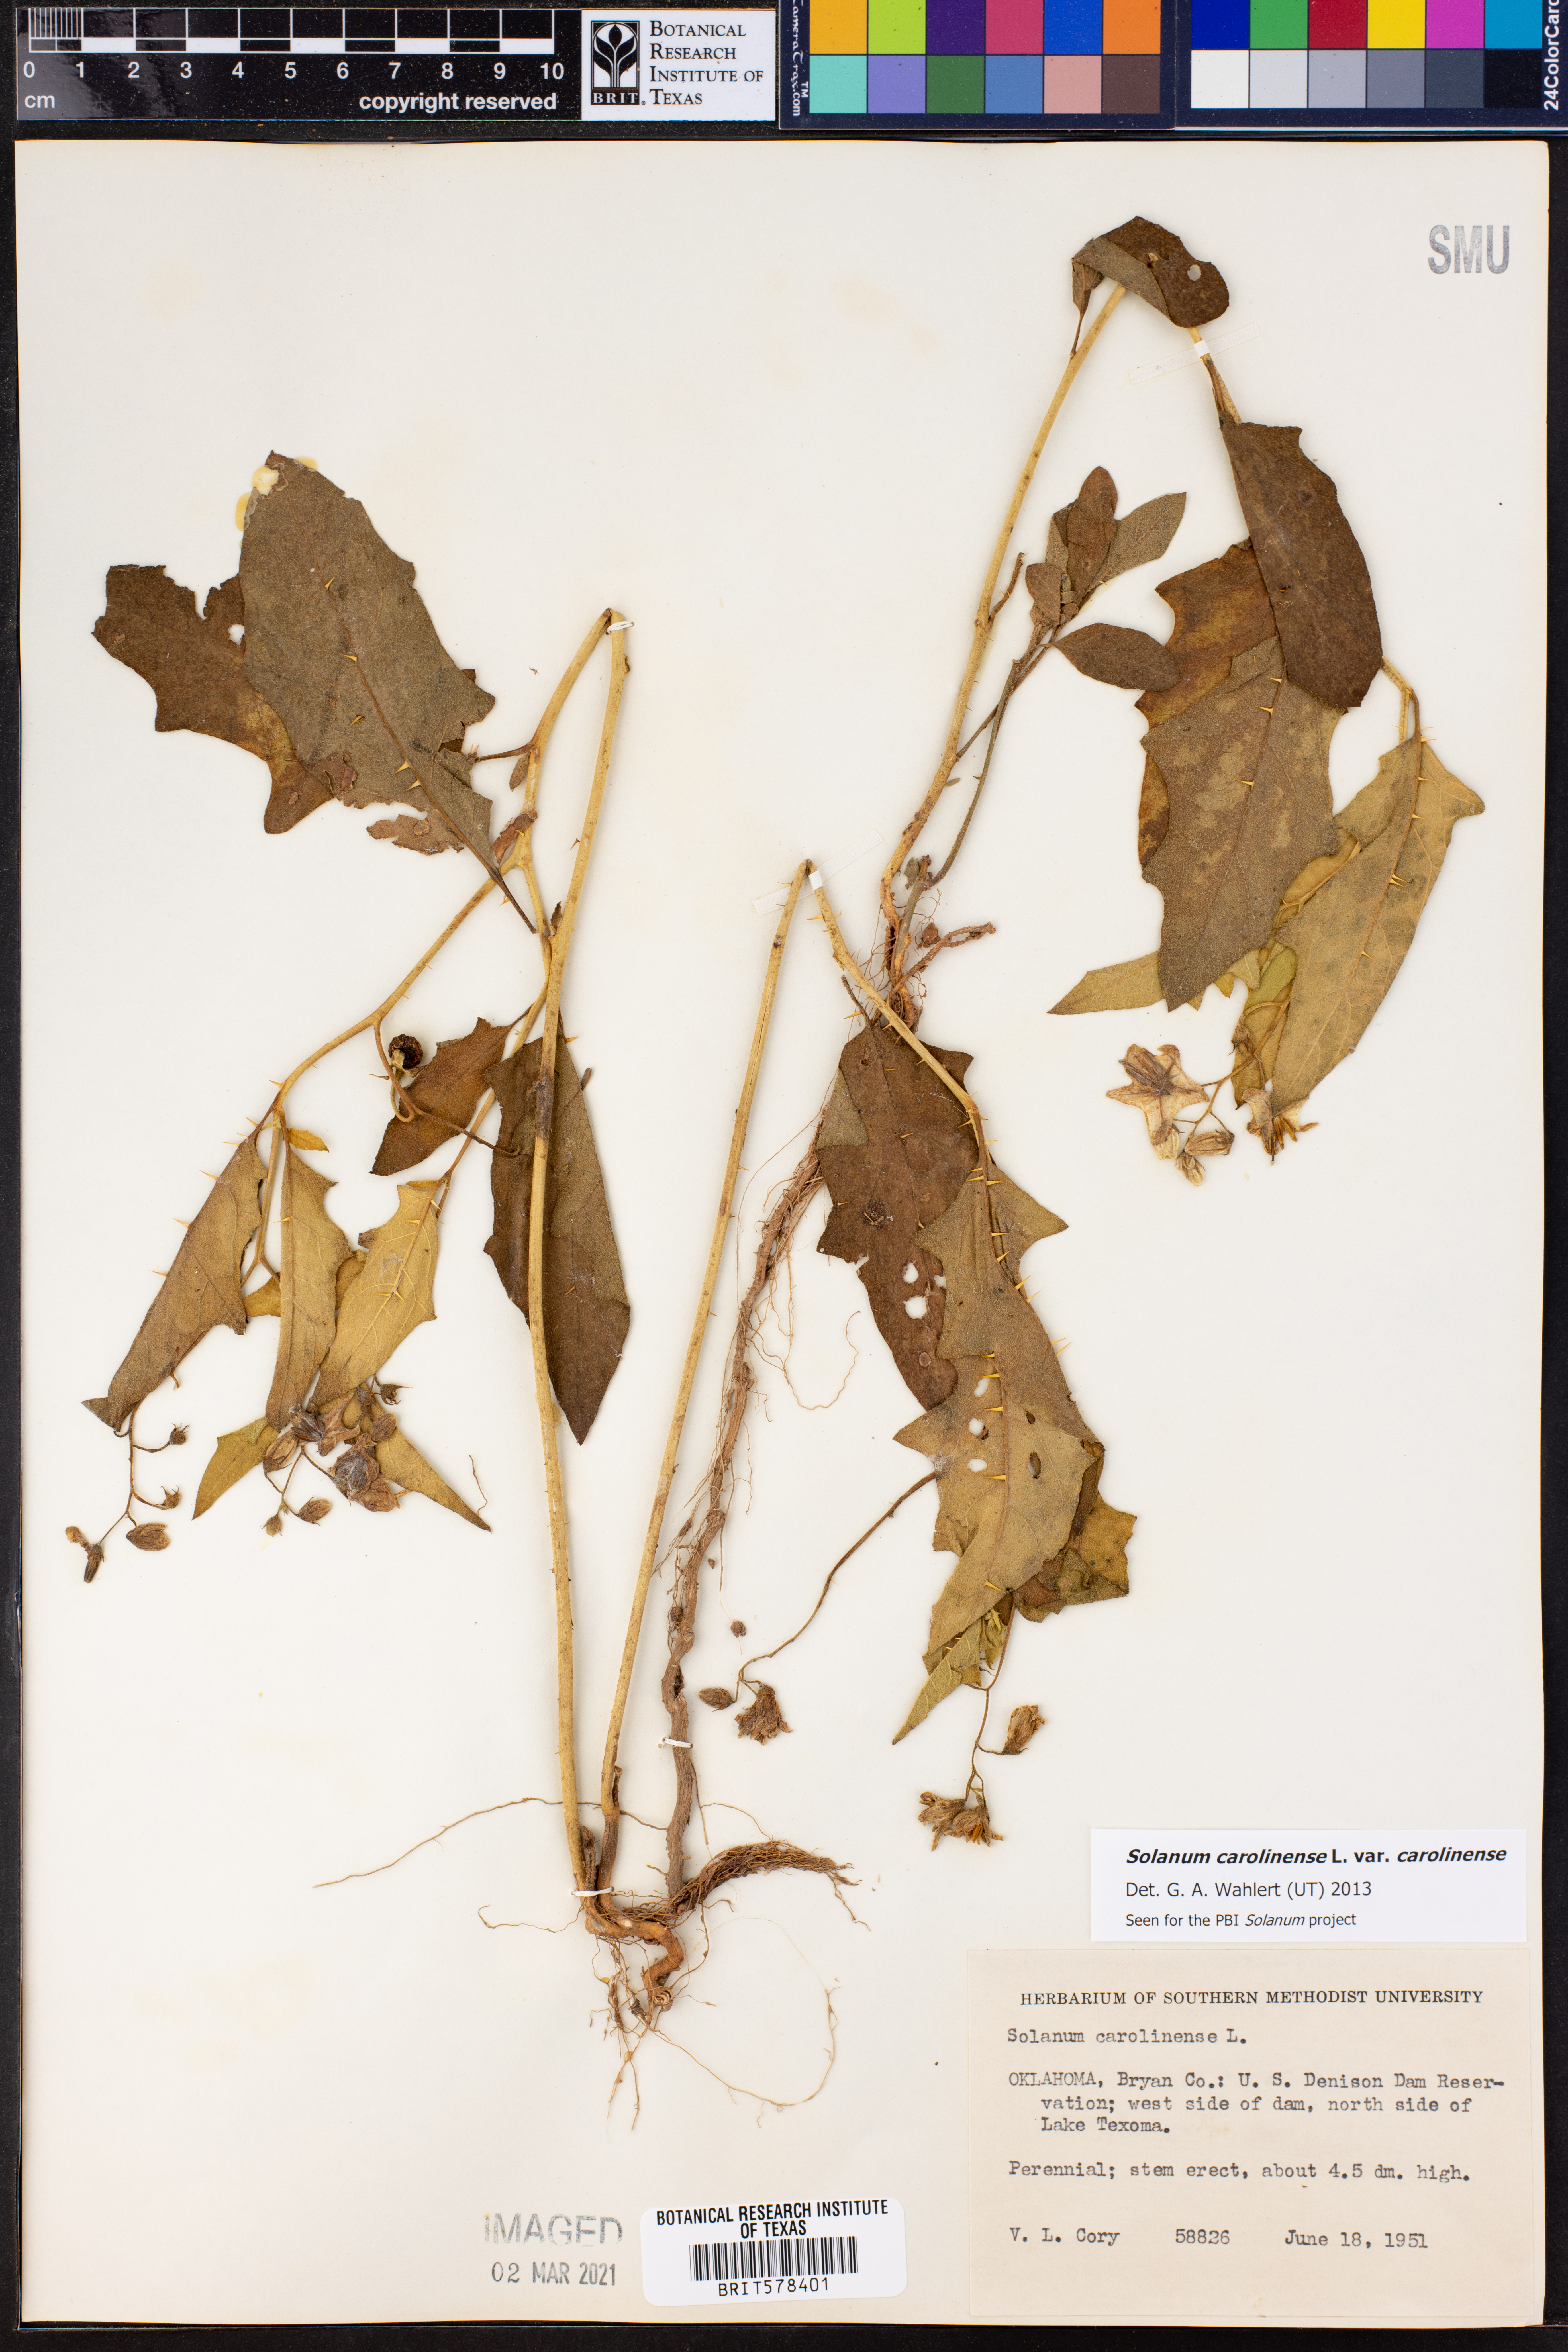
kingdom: Plantae
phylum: Tracheophyta
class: Magnoliopsida
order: Solanales
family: Solanaceae
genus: Solanum
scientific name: Solanum carolinense
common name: Horse-nettle
